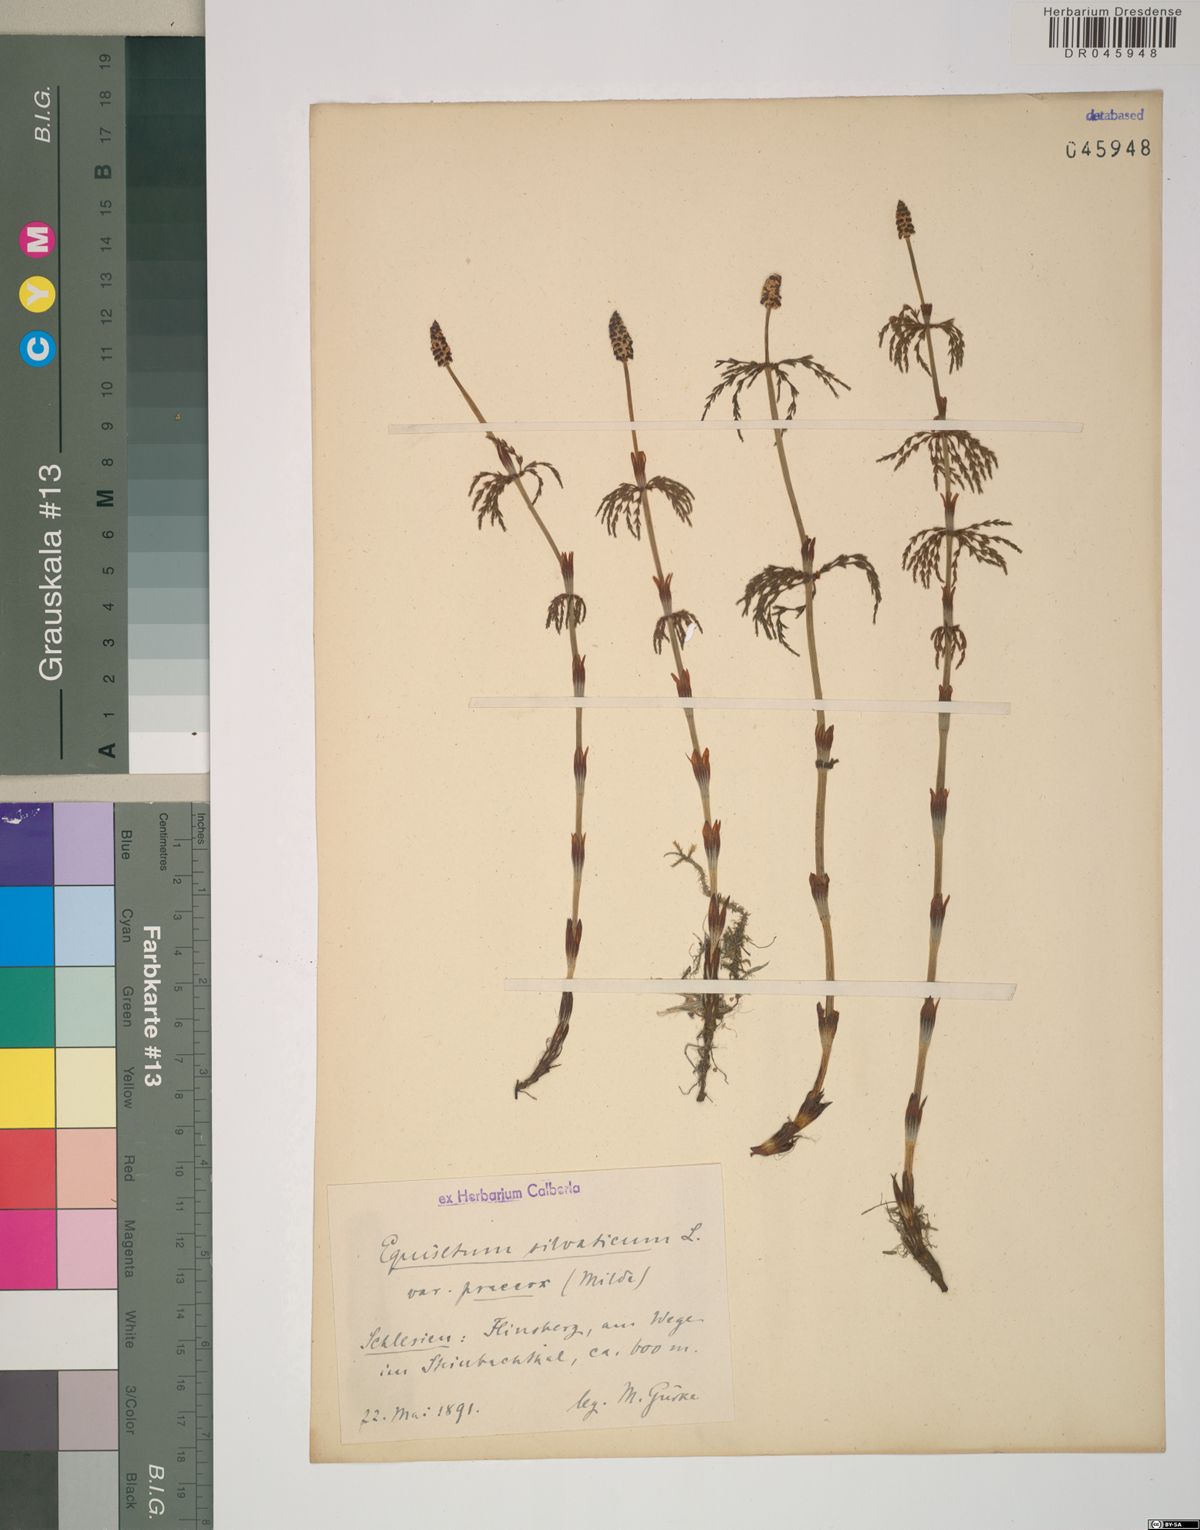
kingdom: Plantae
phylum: Tracheophyta
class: Polypodiopsida
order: Equisetales
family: Equisetaceae
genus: Equisetum
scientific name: Equisetum sylvaticum
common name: Wood horsetail
